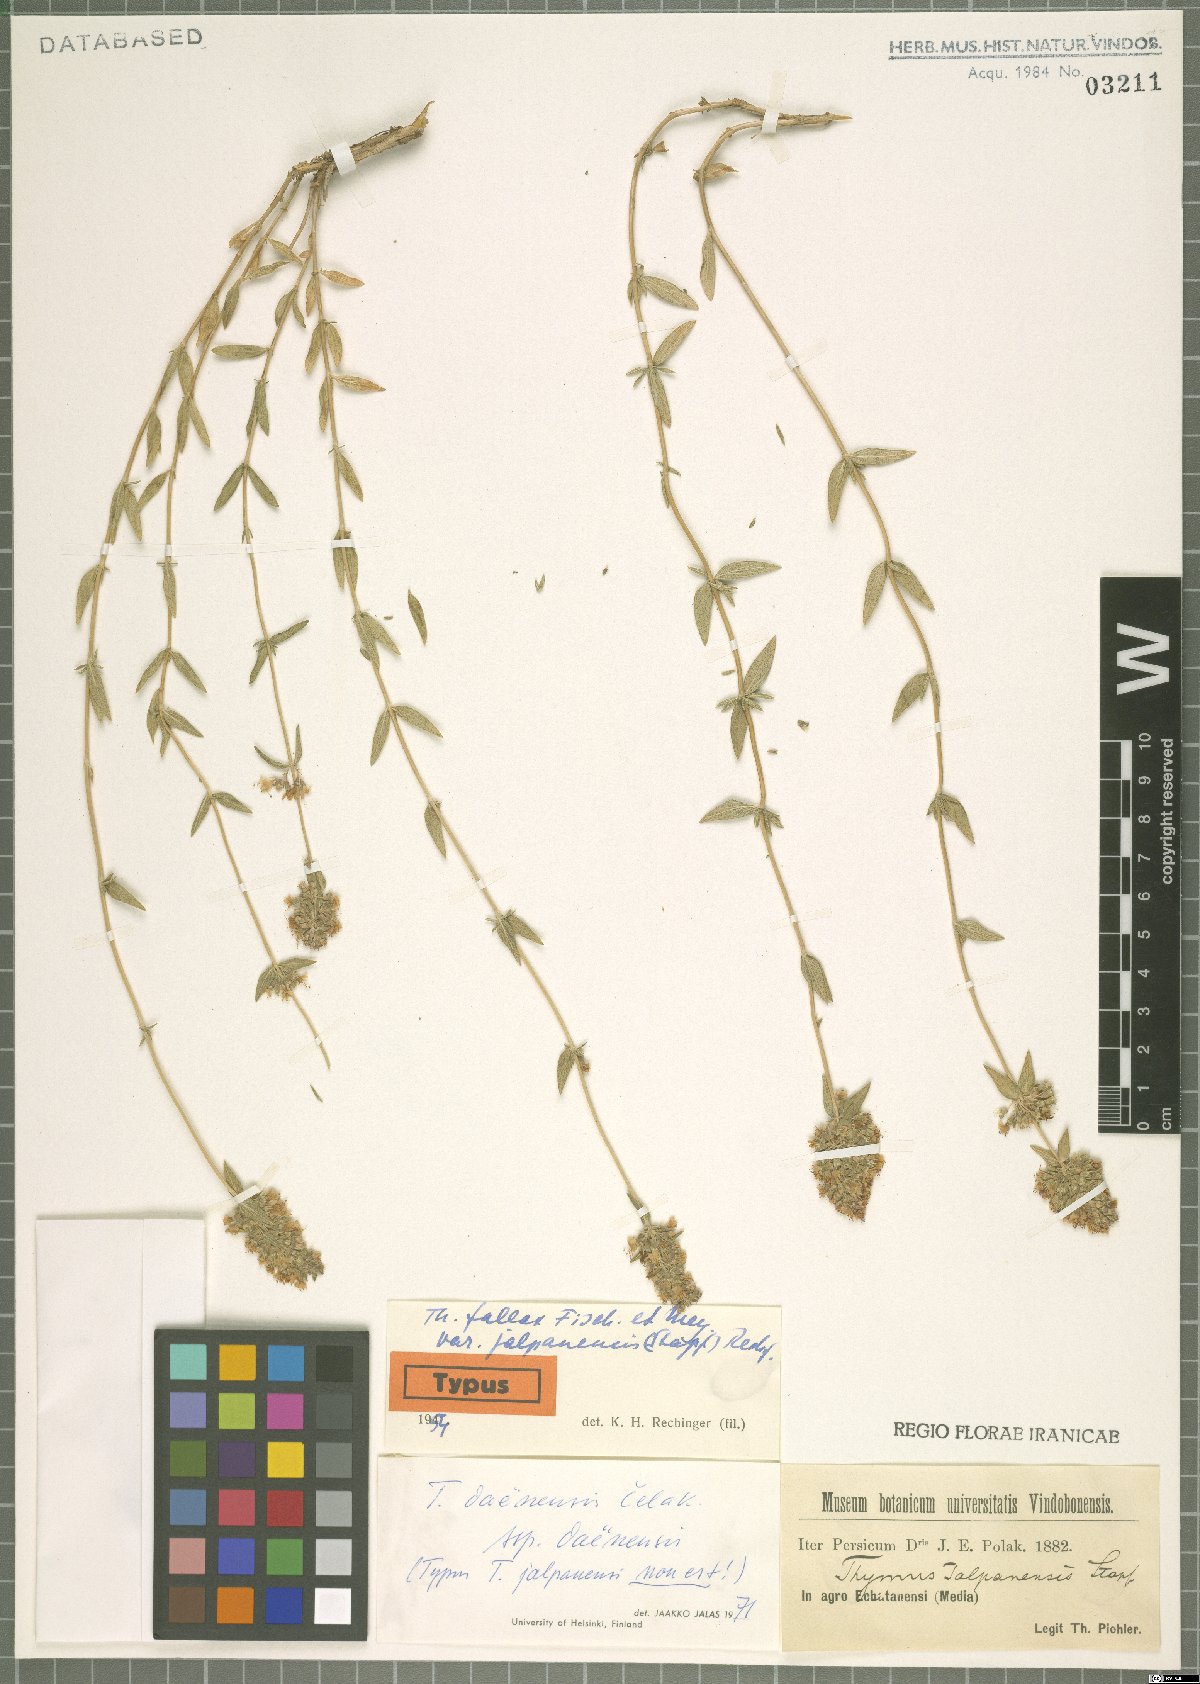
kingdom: Plantae
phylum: Tracheophyta
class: Magnoliopsida
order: Lamiales
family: Lamiaceae
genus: Thymus
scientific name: Thymus daenensis
